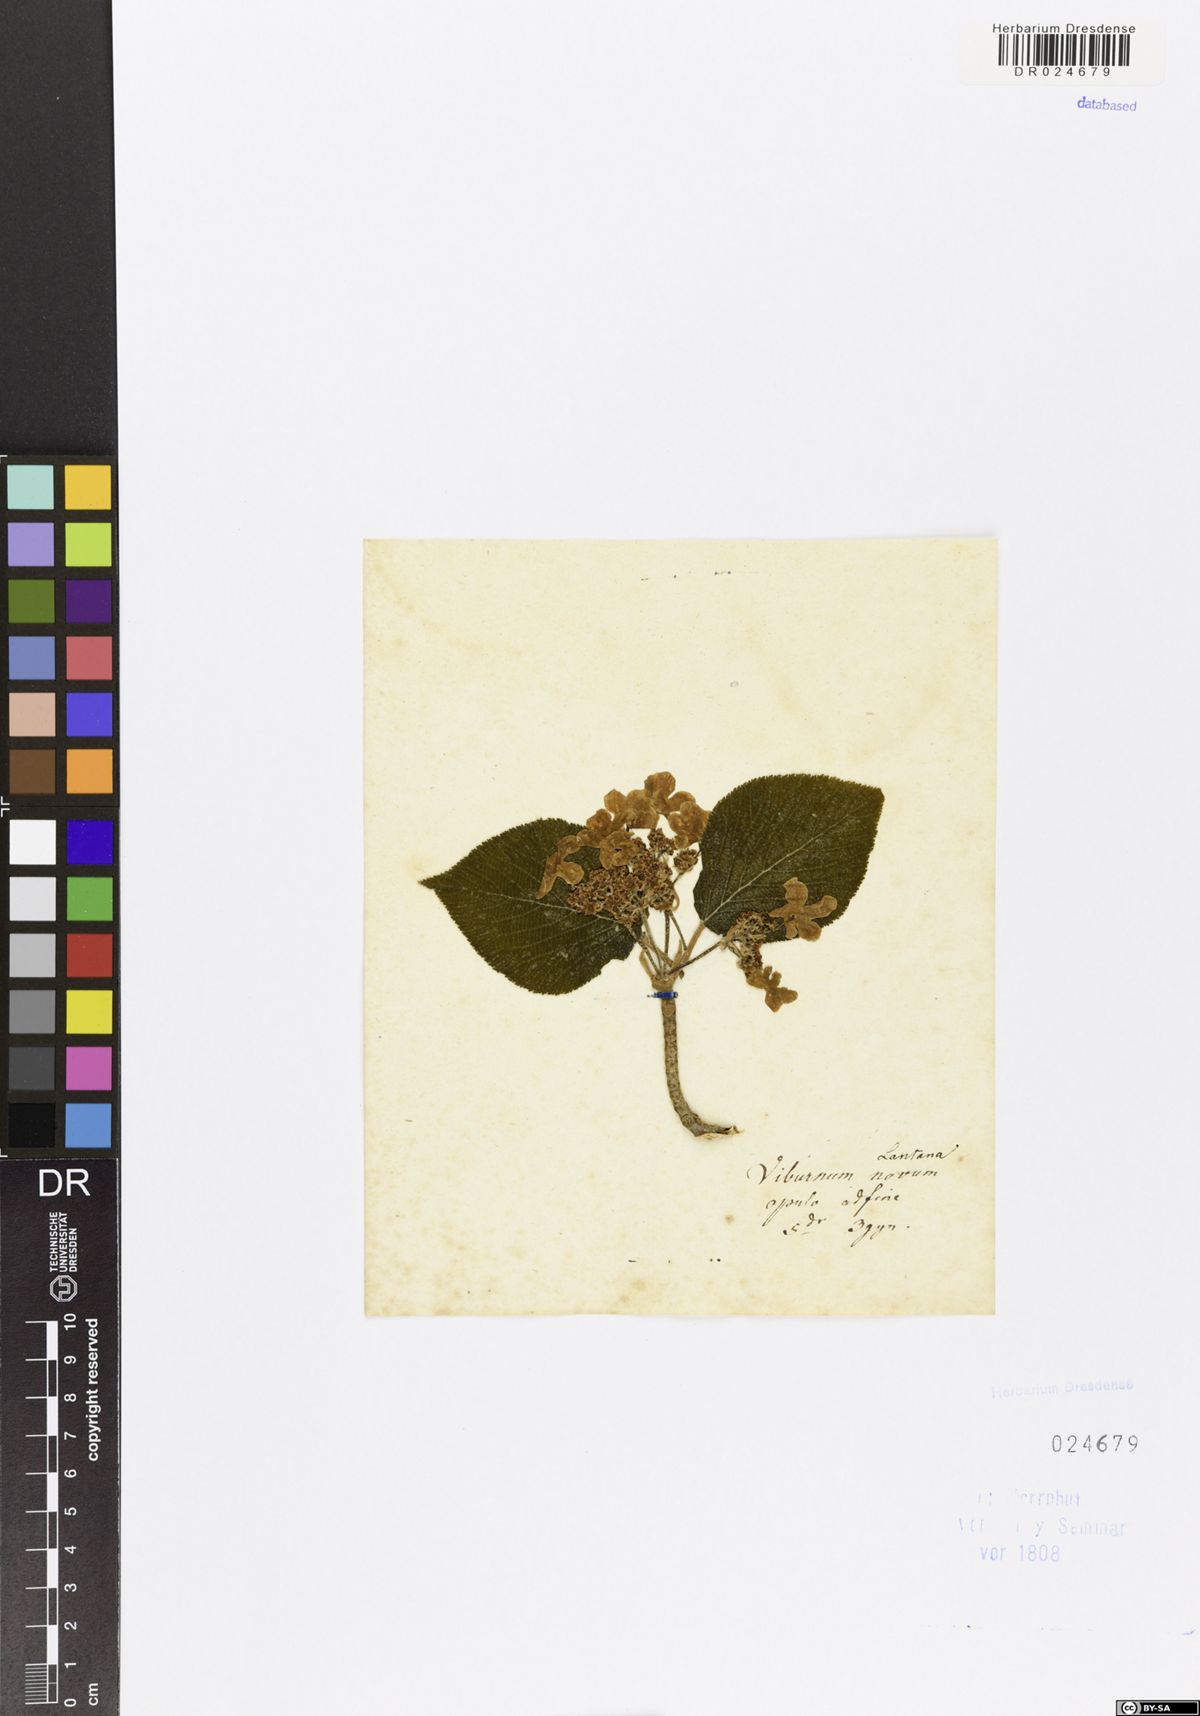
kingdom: Plantae
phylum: Tracheophyta
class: Magnoliopsida
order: Dipsacales
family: Viburnaceae
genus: Viburnum
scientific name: Viburnum lantana
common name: Wayfaring tree
